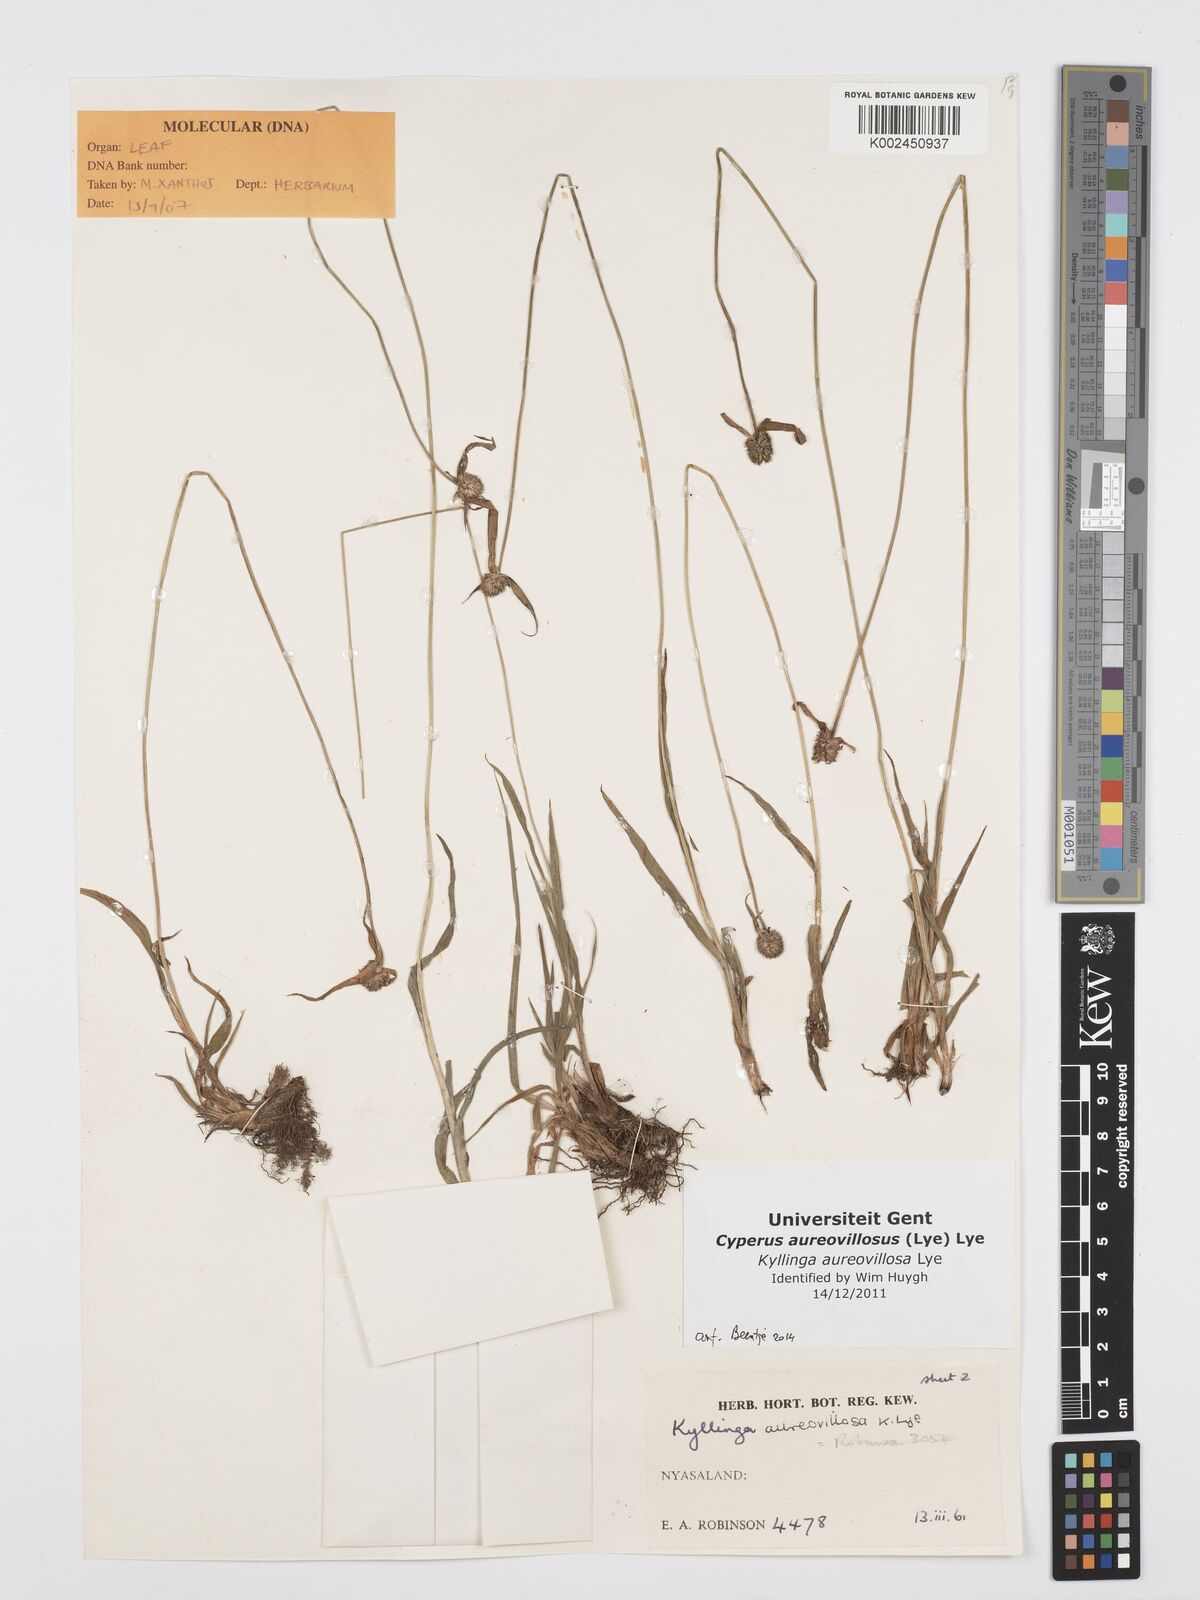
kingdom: Plantae
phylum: Tracheophyta
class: Liliopsida
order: Poales
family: Cyperaceae
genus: Cyperus
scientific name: Cyperus aureovillosus
